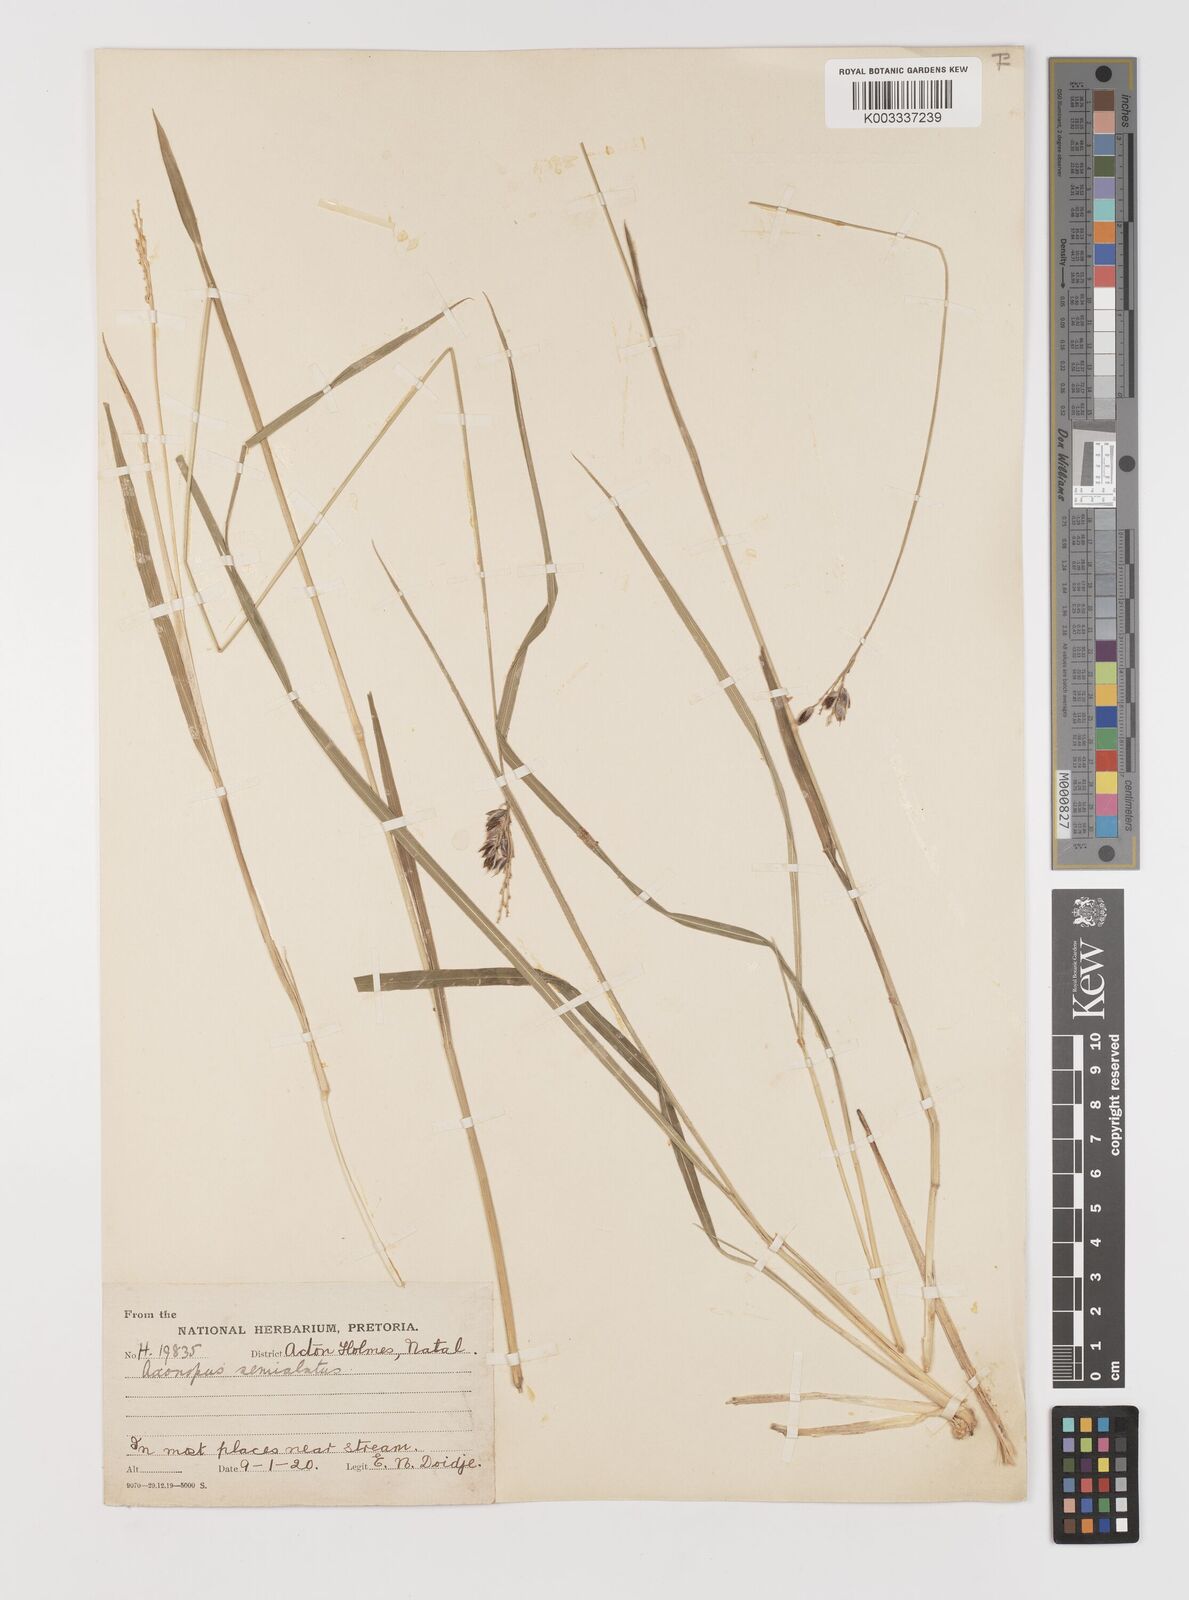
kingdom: Plantae
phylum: Tracheophyta
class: Liliopsida
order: Poales
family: Poaceae
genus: Alloteropsis
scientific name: Alloteropsis semialata
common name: Cockatoo grass
